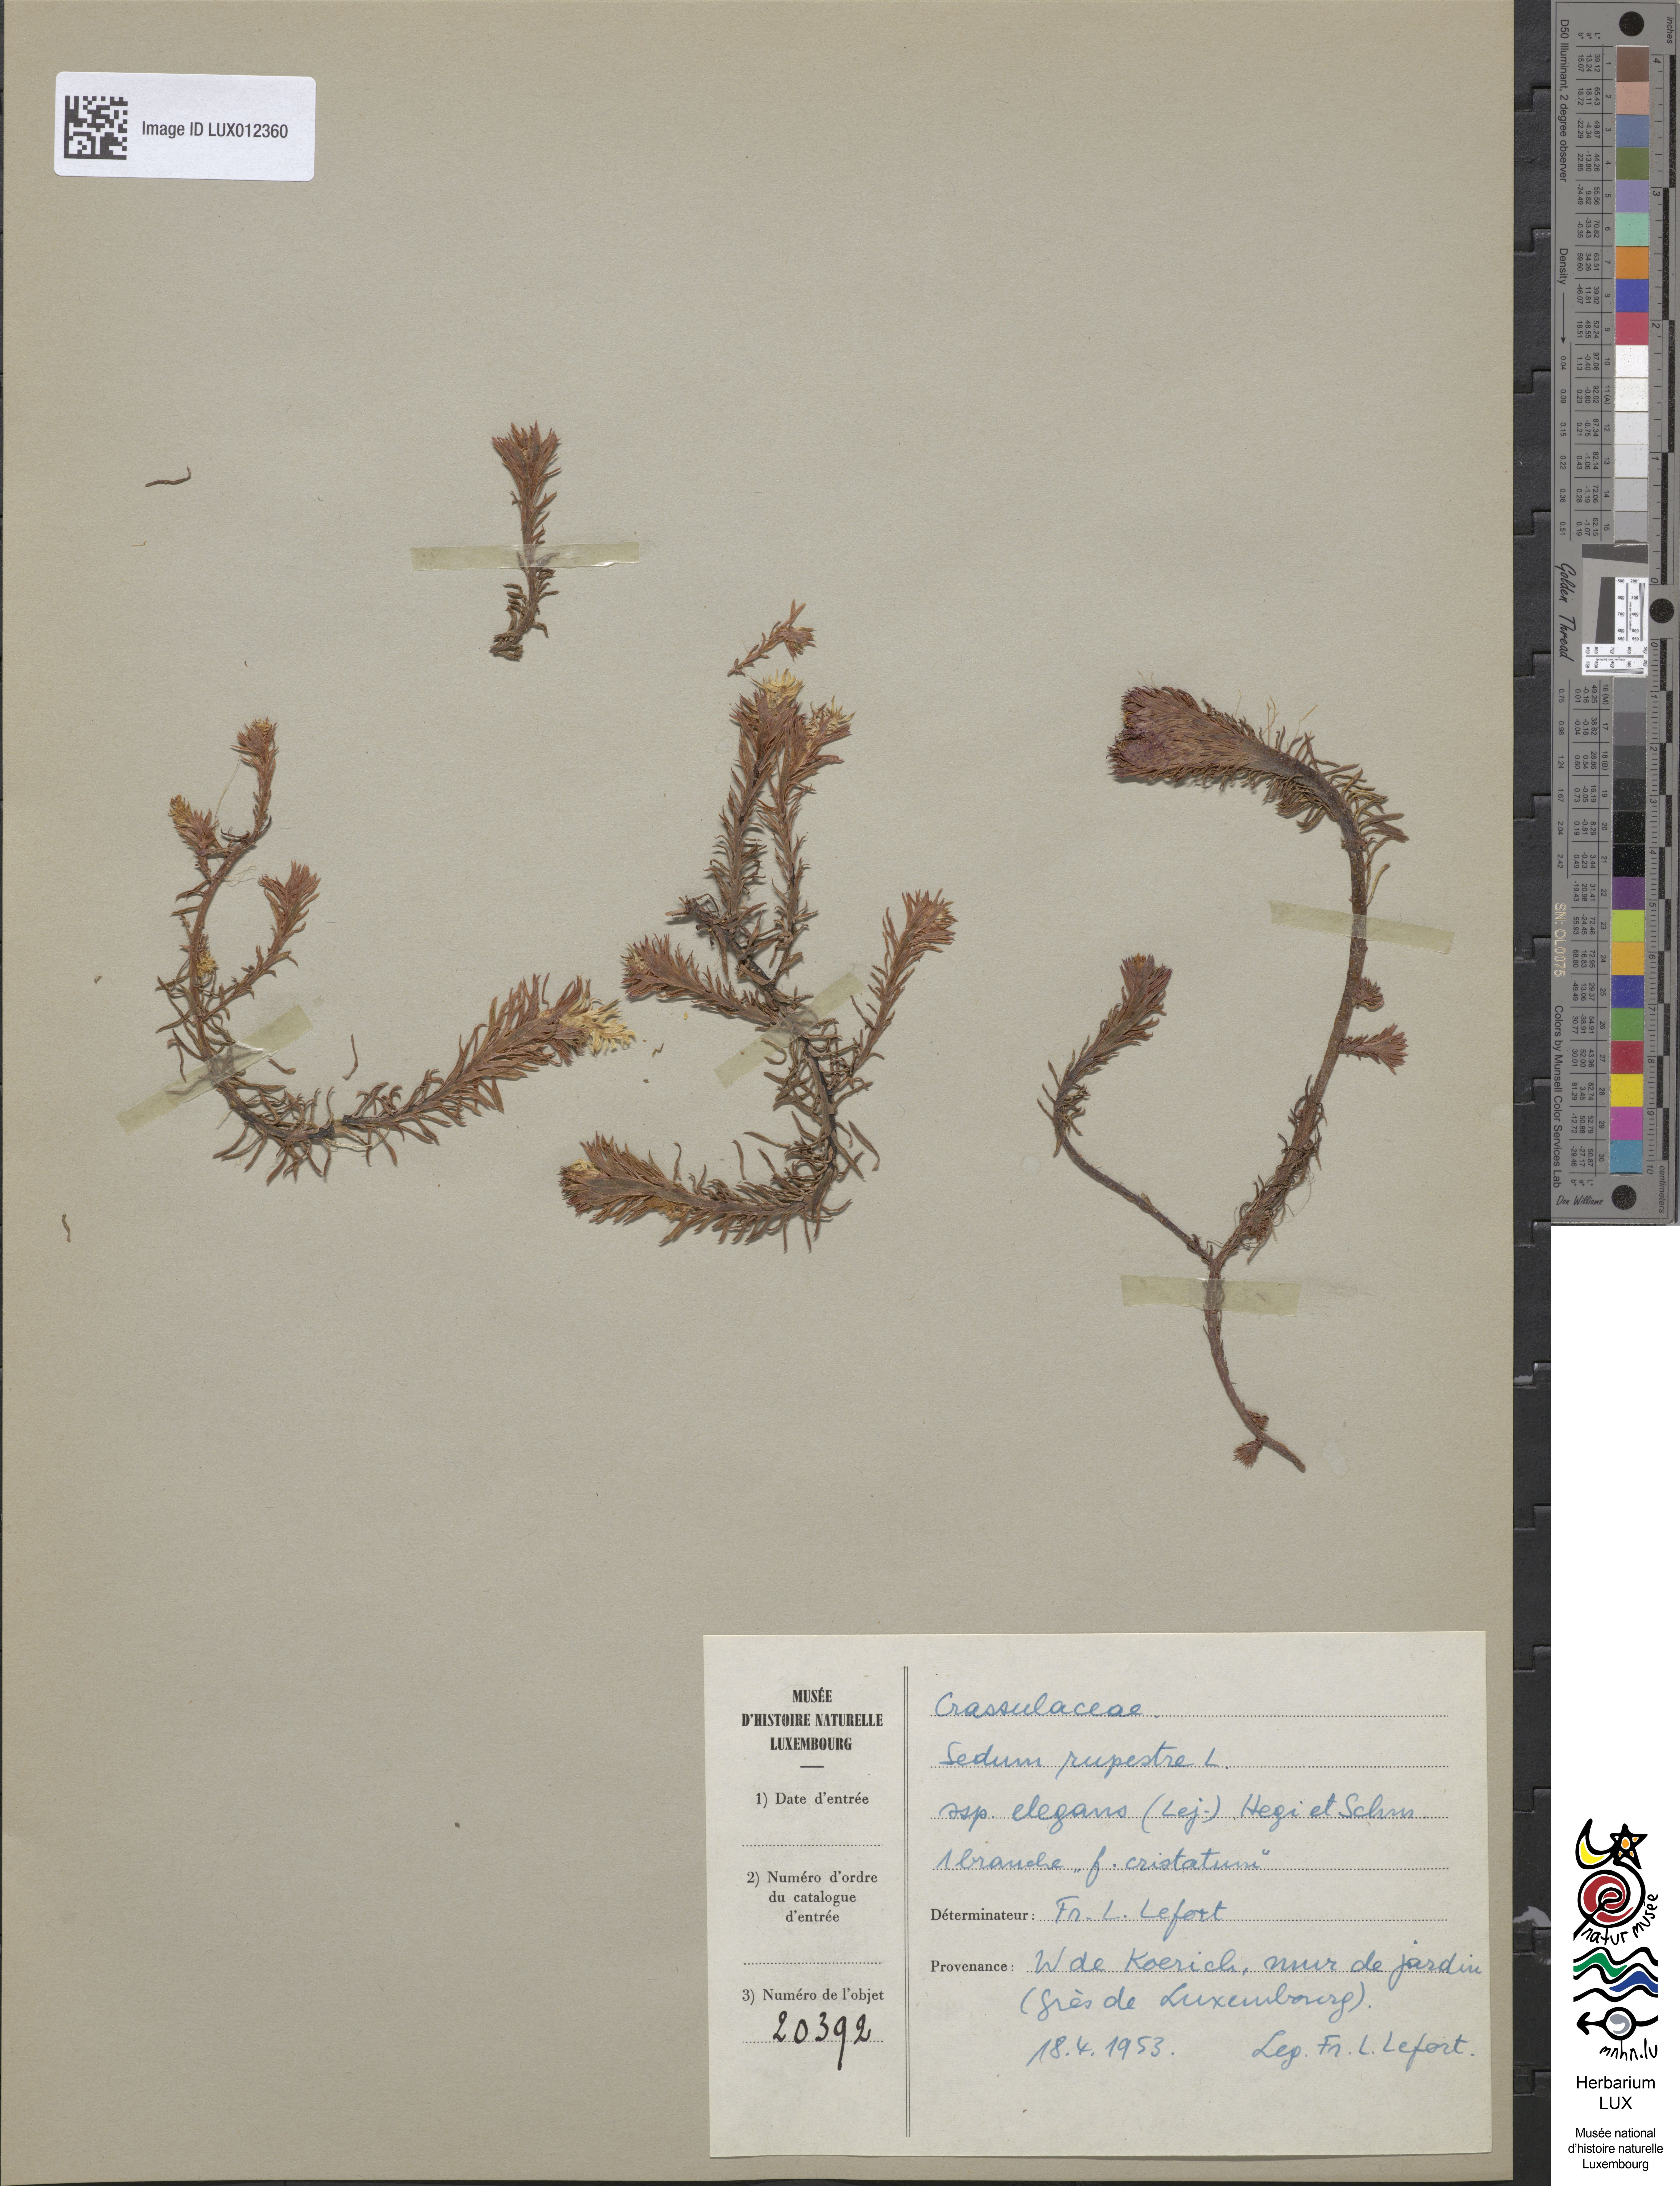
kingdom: Plantae
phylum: Tracheophyta
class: Magnoliopsida
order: Saxifragales
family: Crassulaceae
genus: Petrosedum
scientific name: Petrosedum rupestre
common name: Jenny's stonecrop
